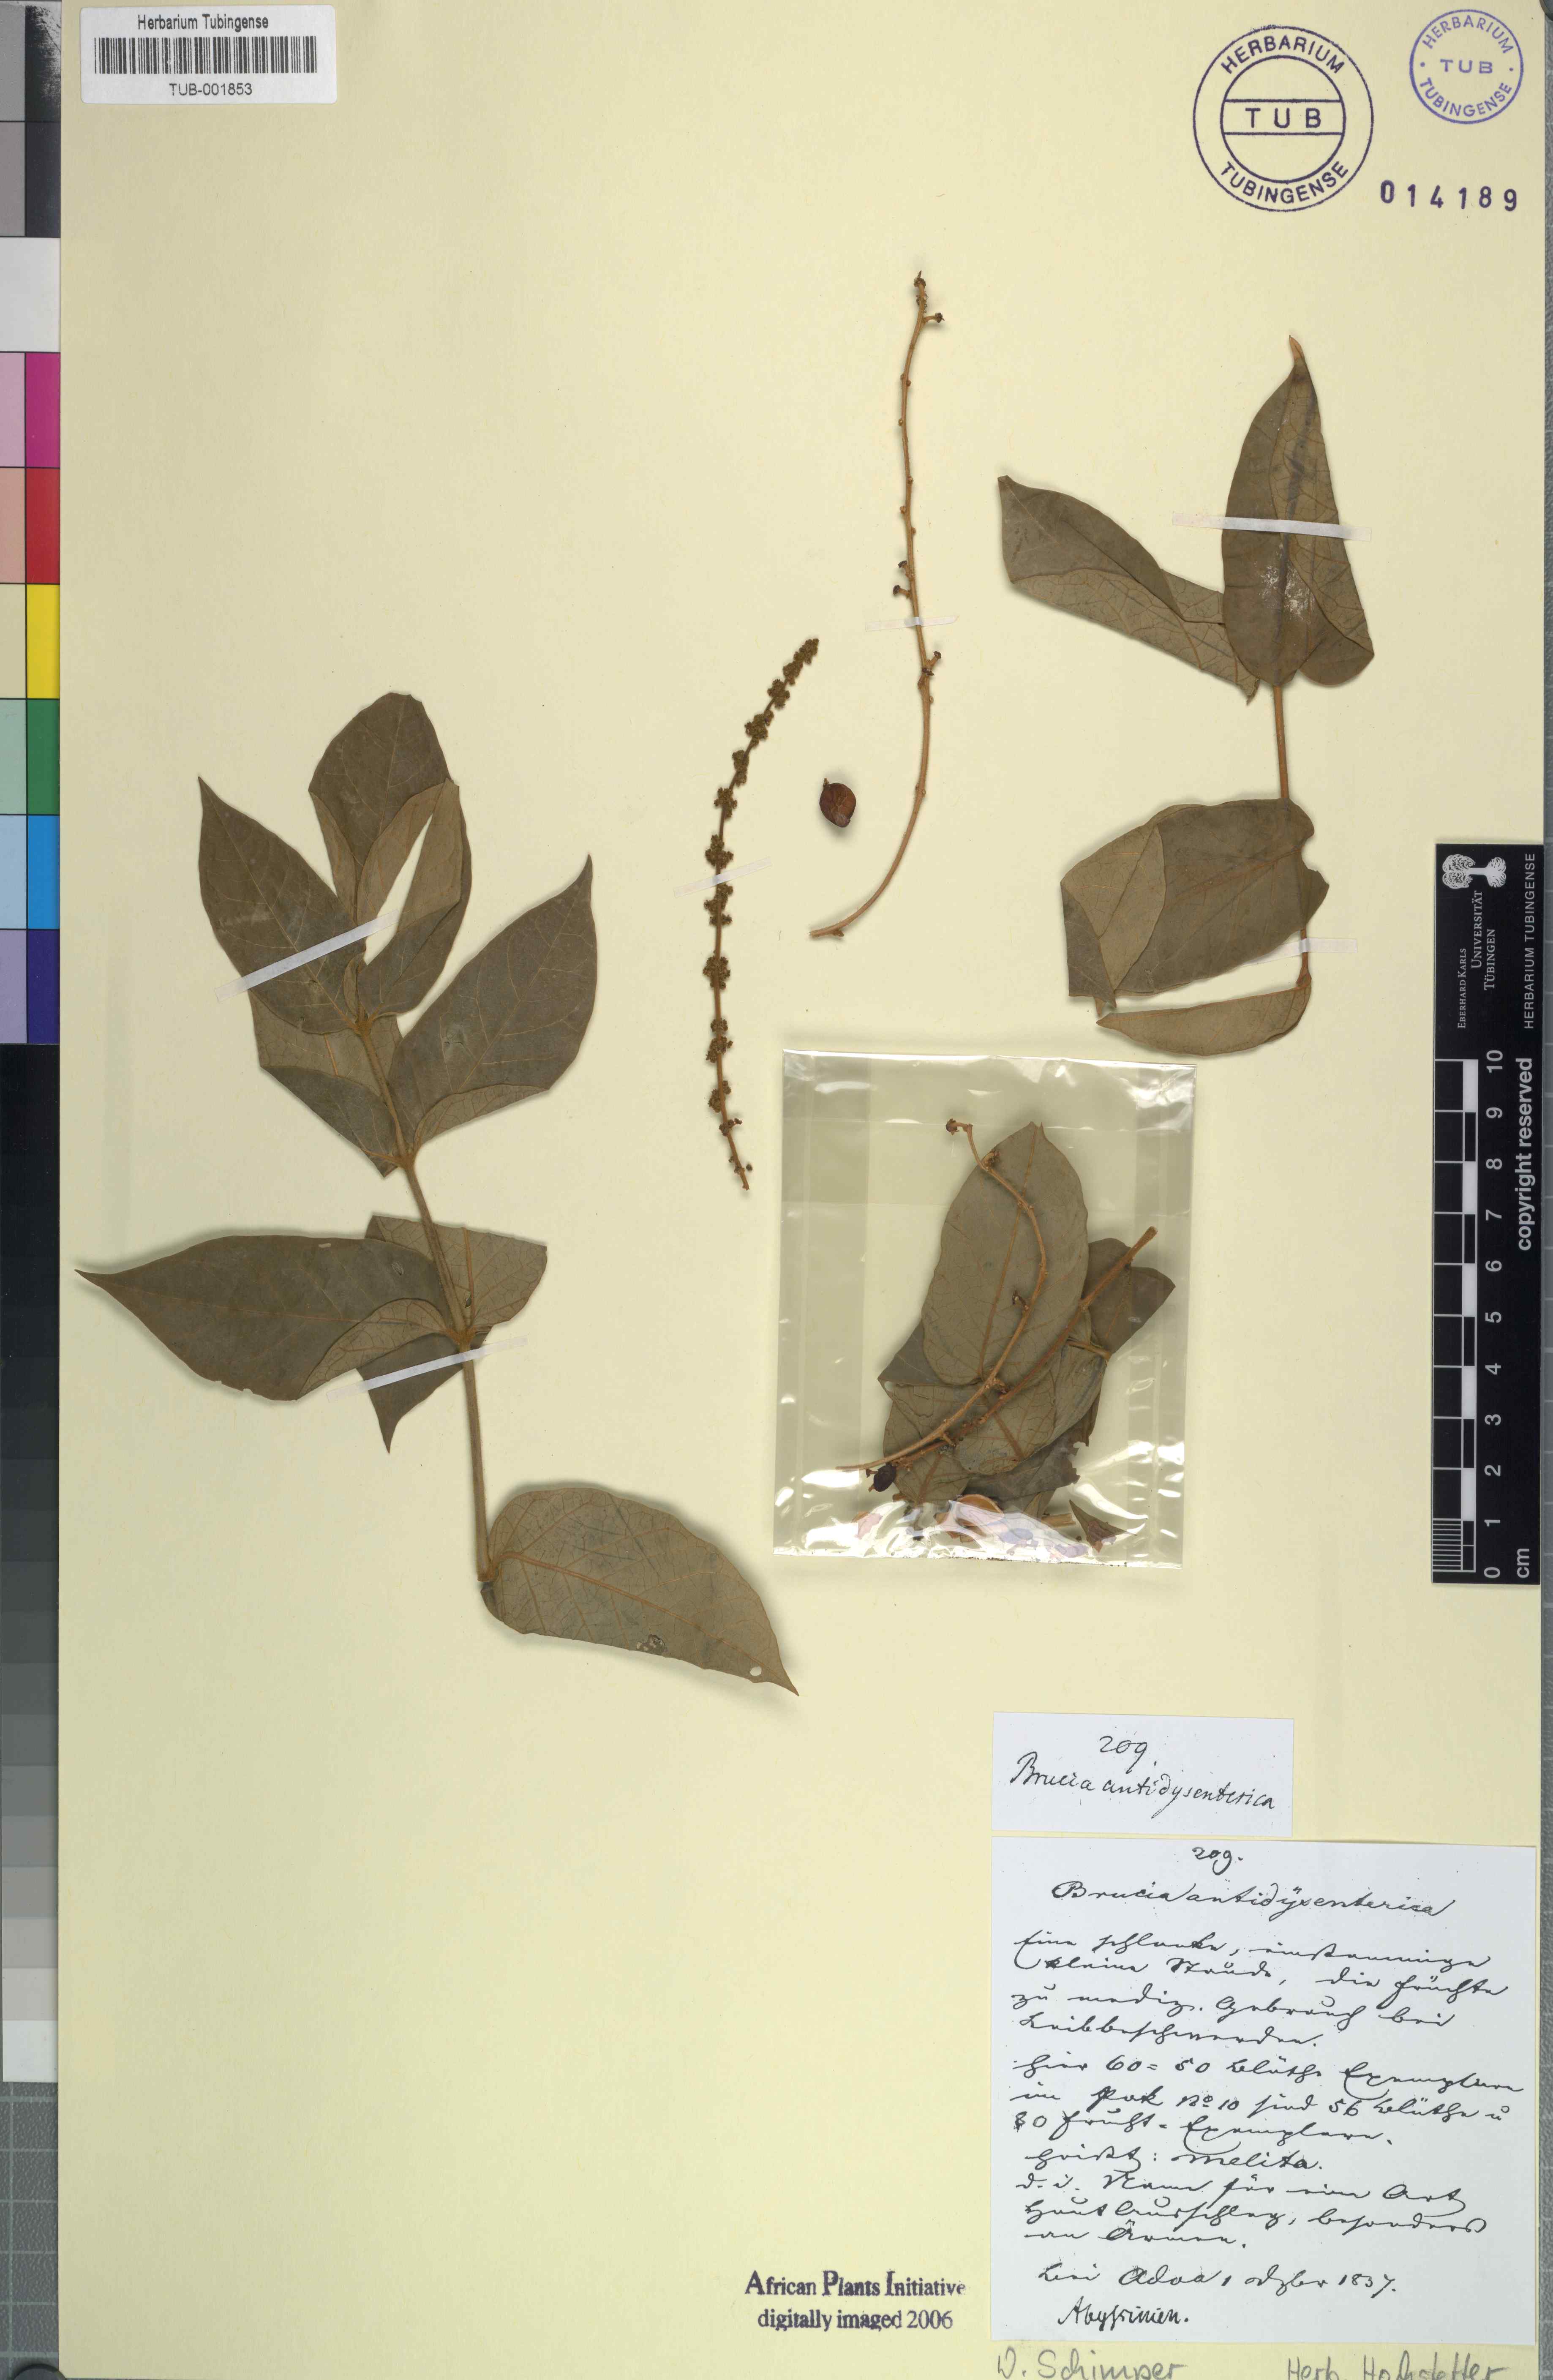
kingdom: Plantae
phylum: Tracheophyta
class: Magnoliopsida
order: Sapindales
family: Simaroubaceae
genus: Brucea
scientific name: Brucea antidysenterica
